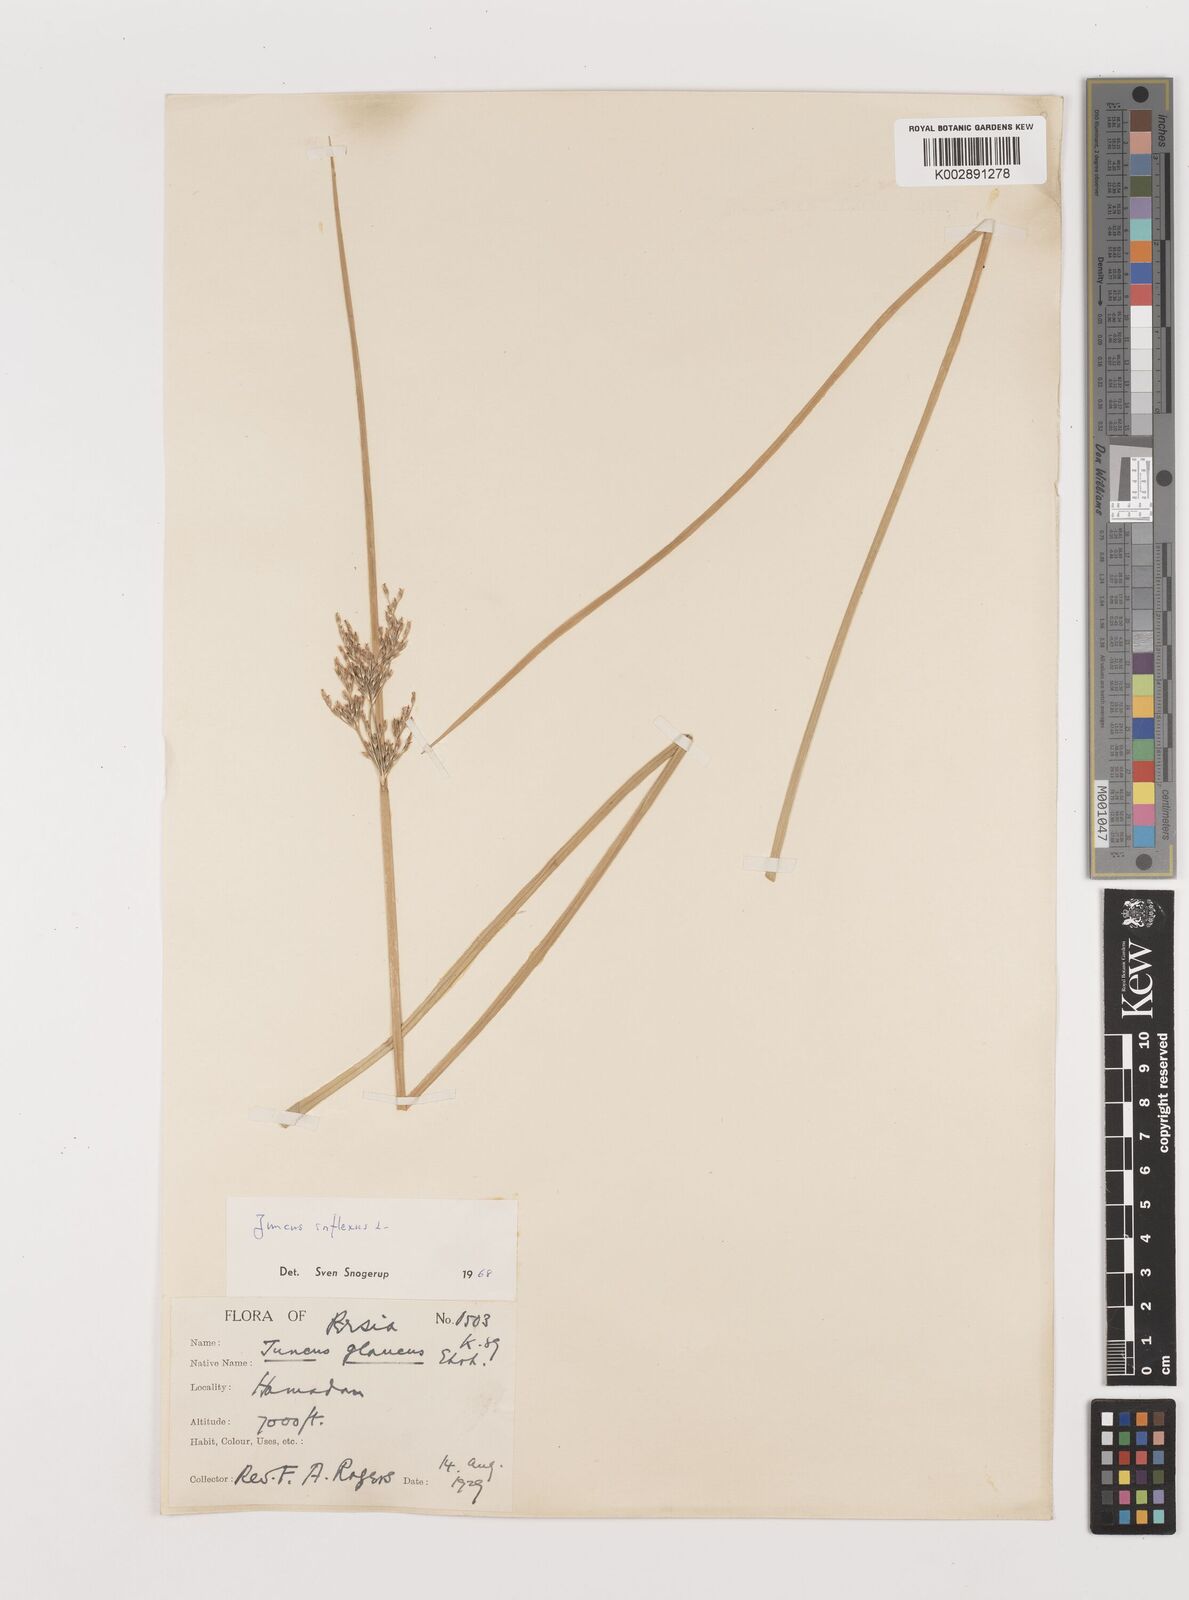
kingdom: Plantae
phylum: Tracheophyta
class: Liliopsida
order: Poales
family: Juncaceae
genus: Juncus
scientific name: Juncus inflexus
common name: Hard rush
